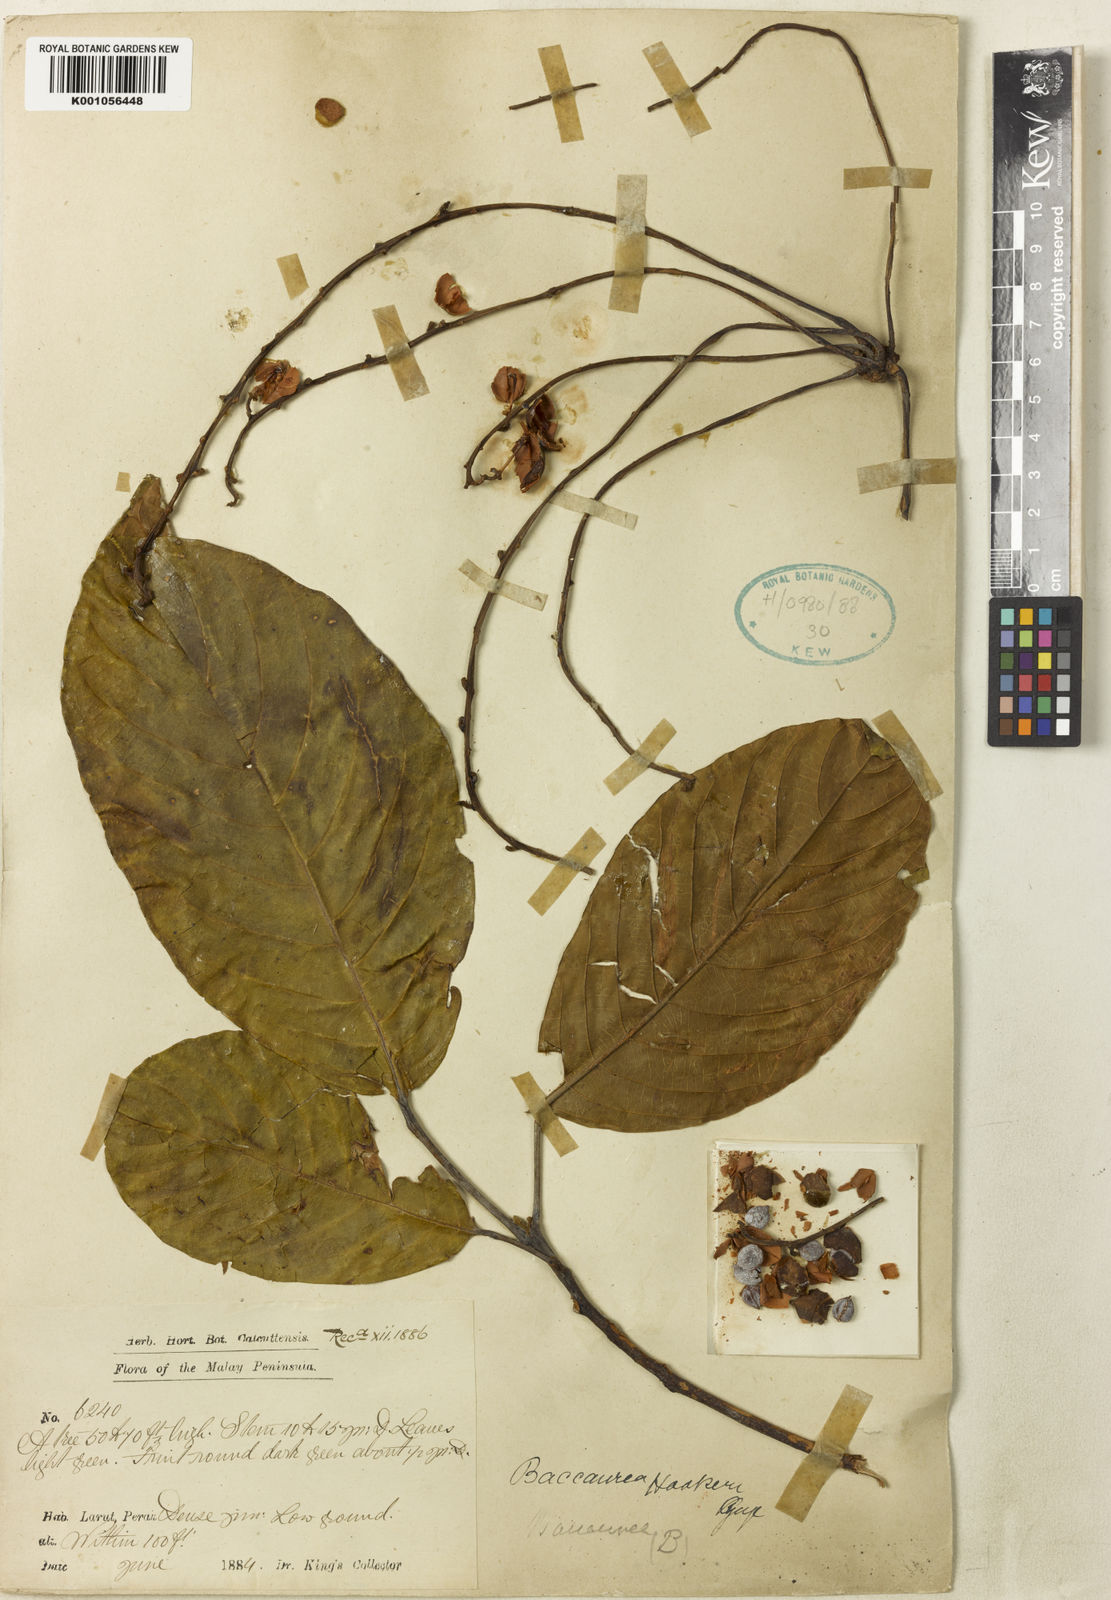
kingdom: Plantae
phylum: Tracheophyta
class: Magnoliopsida
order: Malpighiales
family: Phyllanthaceae
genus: Baccaurea
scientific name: Baccaurea polyneura
